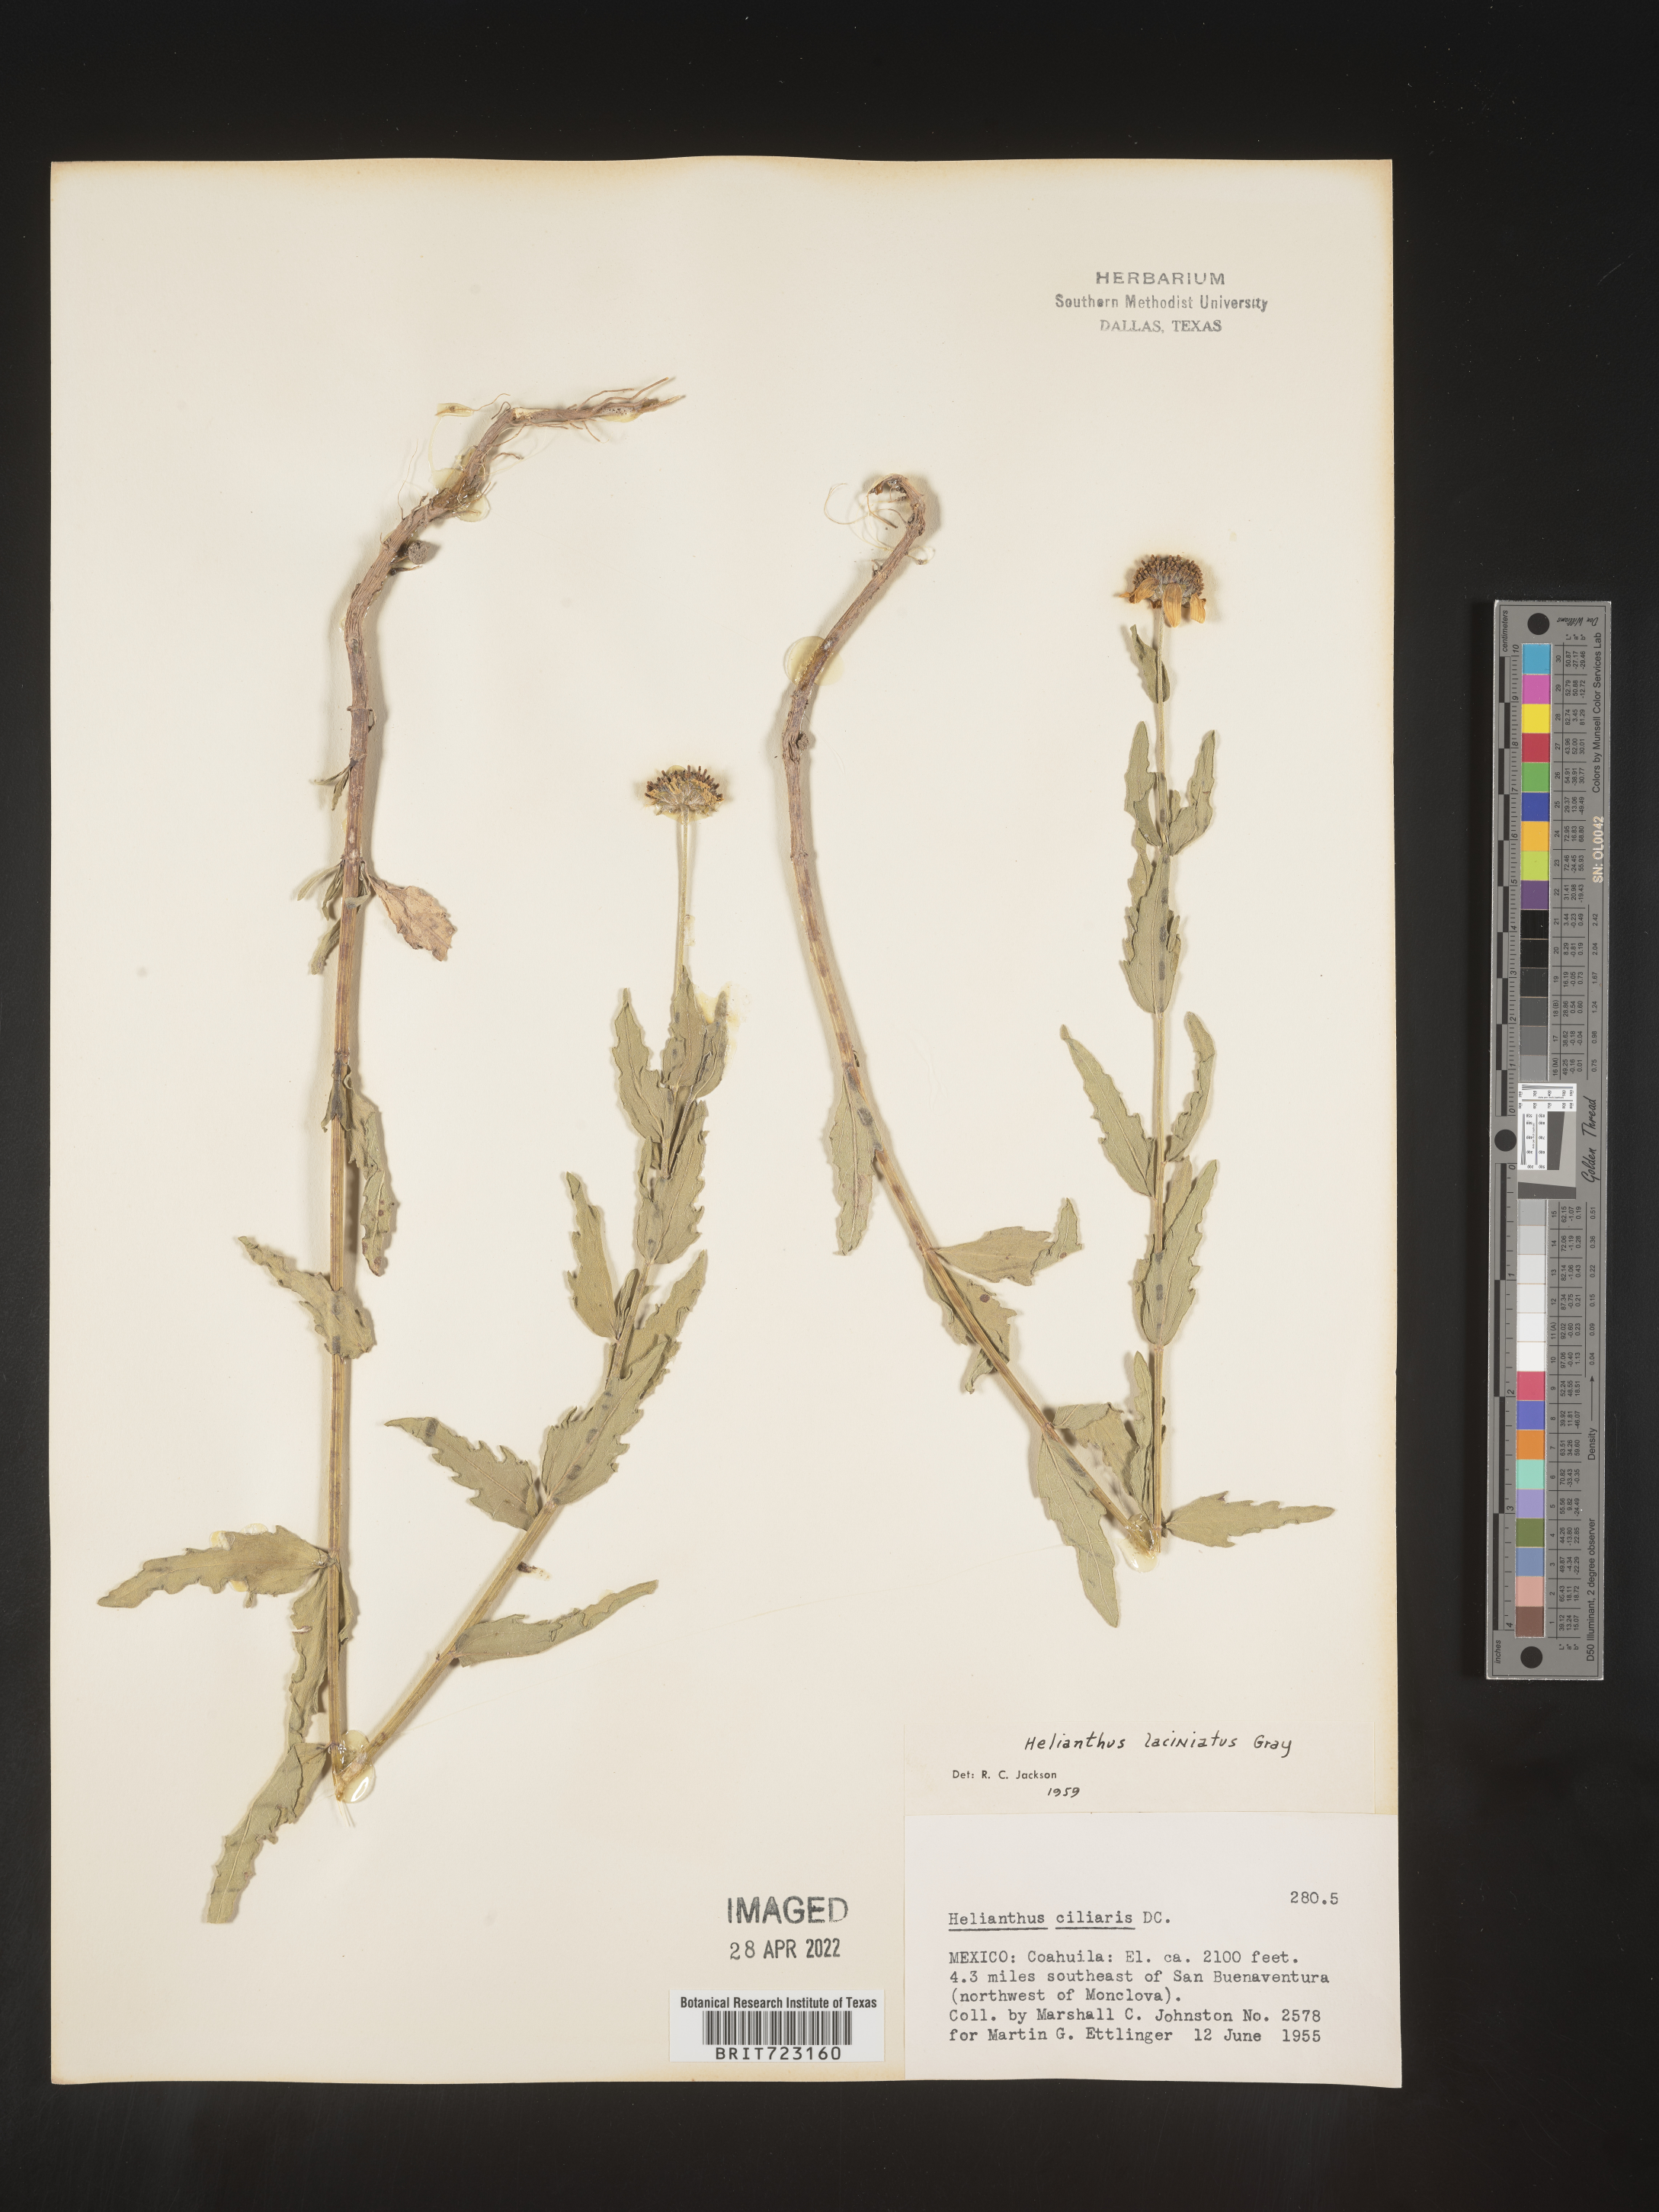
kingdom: Plantae
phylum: Tracheophyta
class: Magnoliopsida
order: Asterales
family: Asteraceae
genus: Helianthus
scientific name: Helianthus
